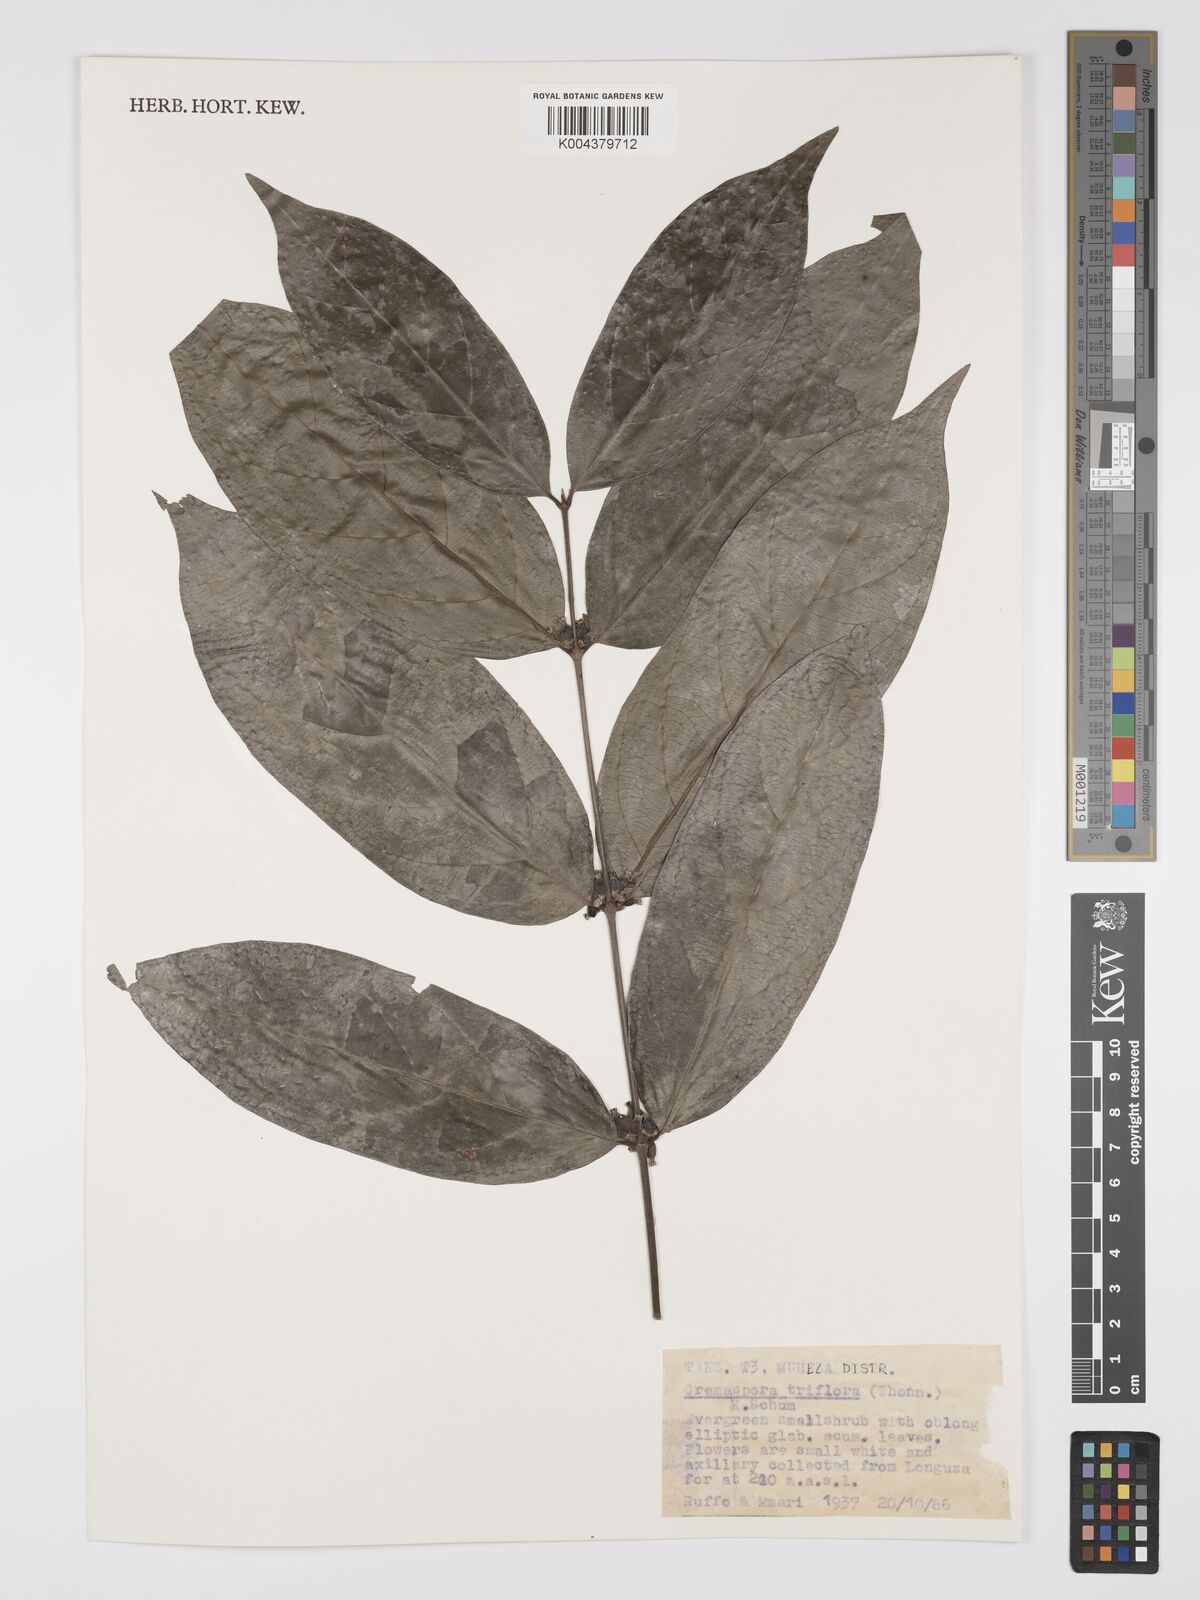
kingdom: Plantae
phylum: Tracheophyta
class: Magnoliopsida
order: Gentianales
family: Rubiaceae
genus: Cremaspora
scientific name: Cremaspora triflora
